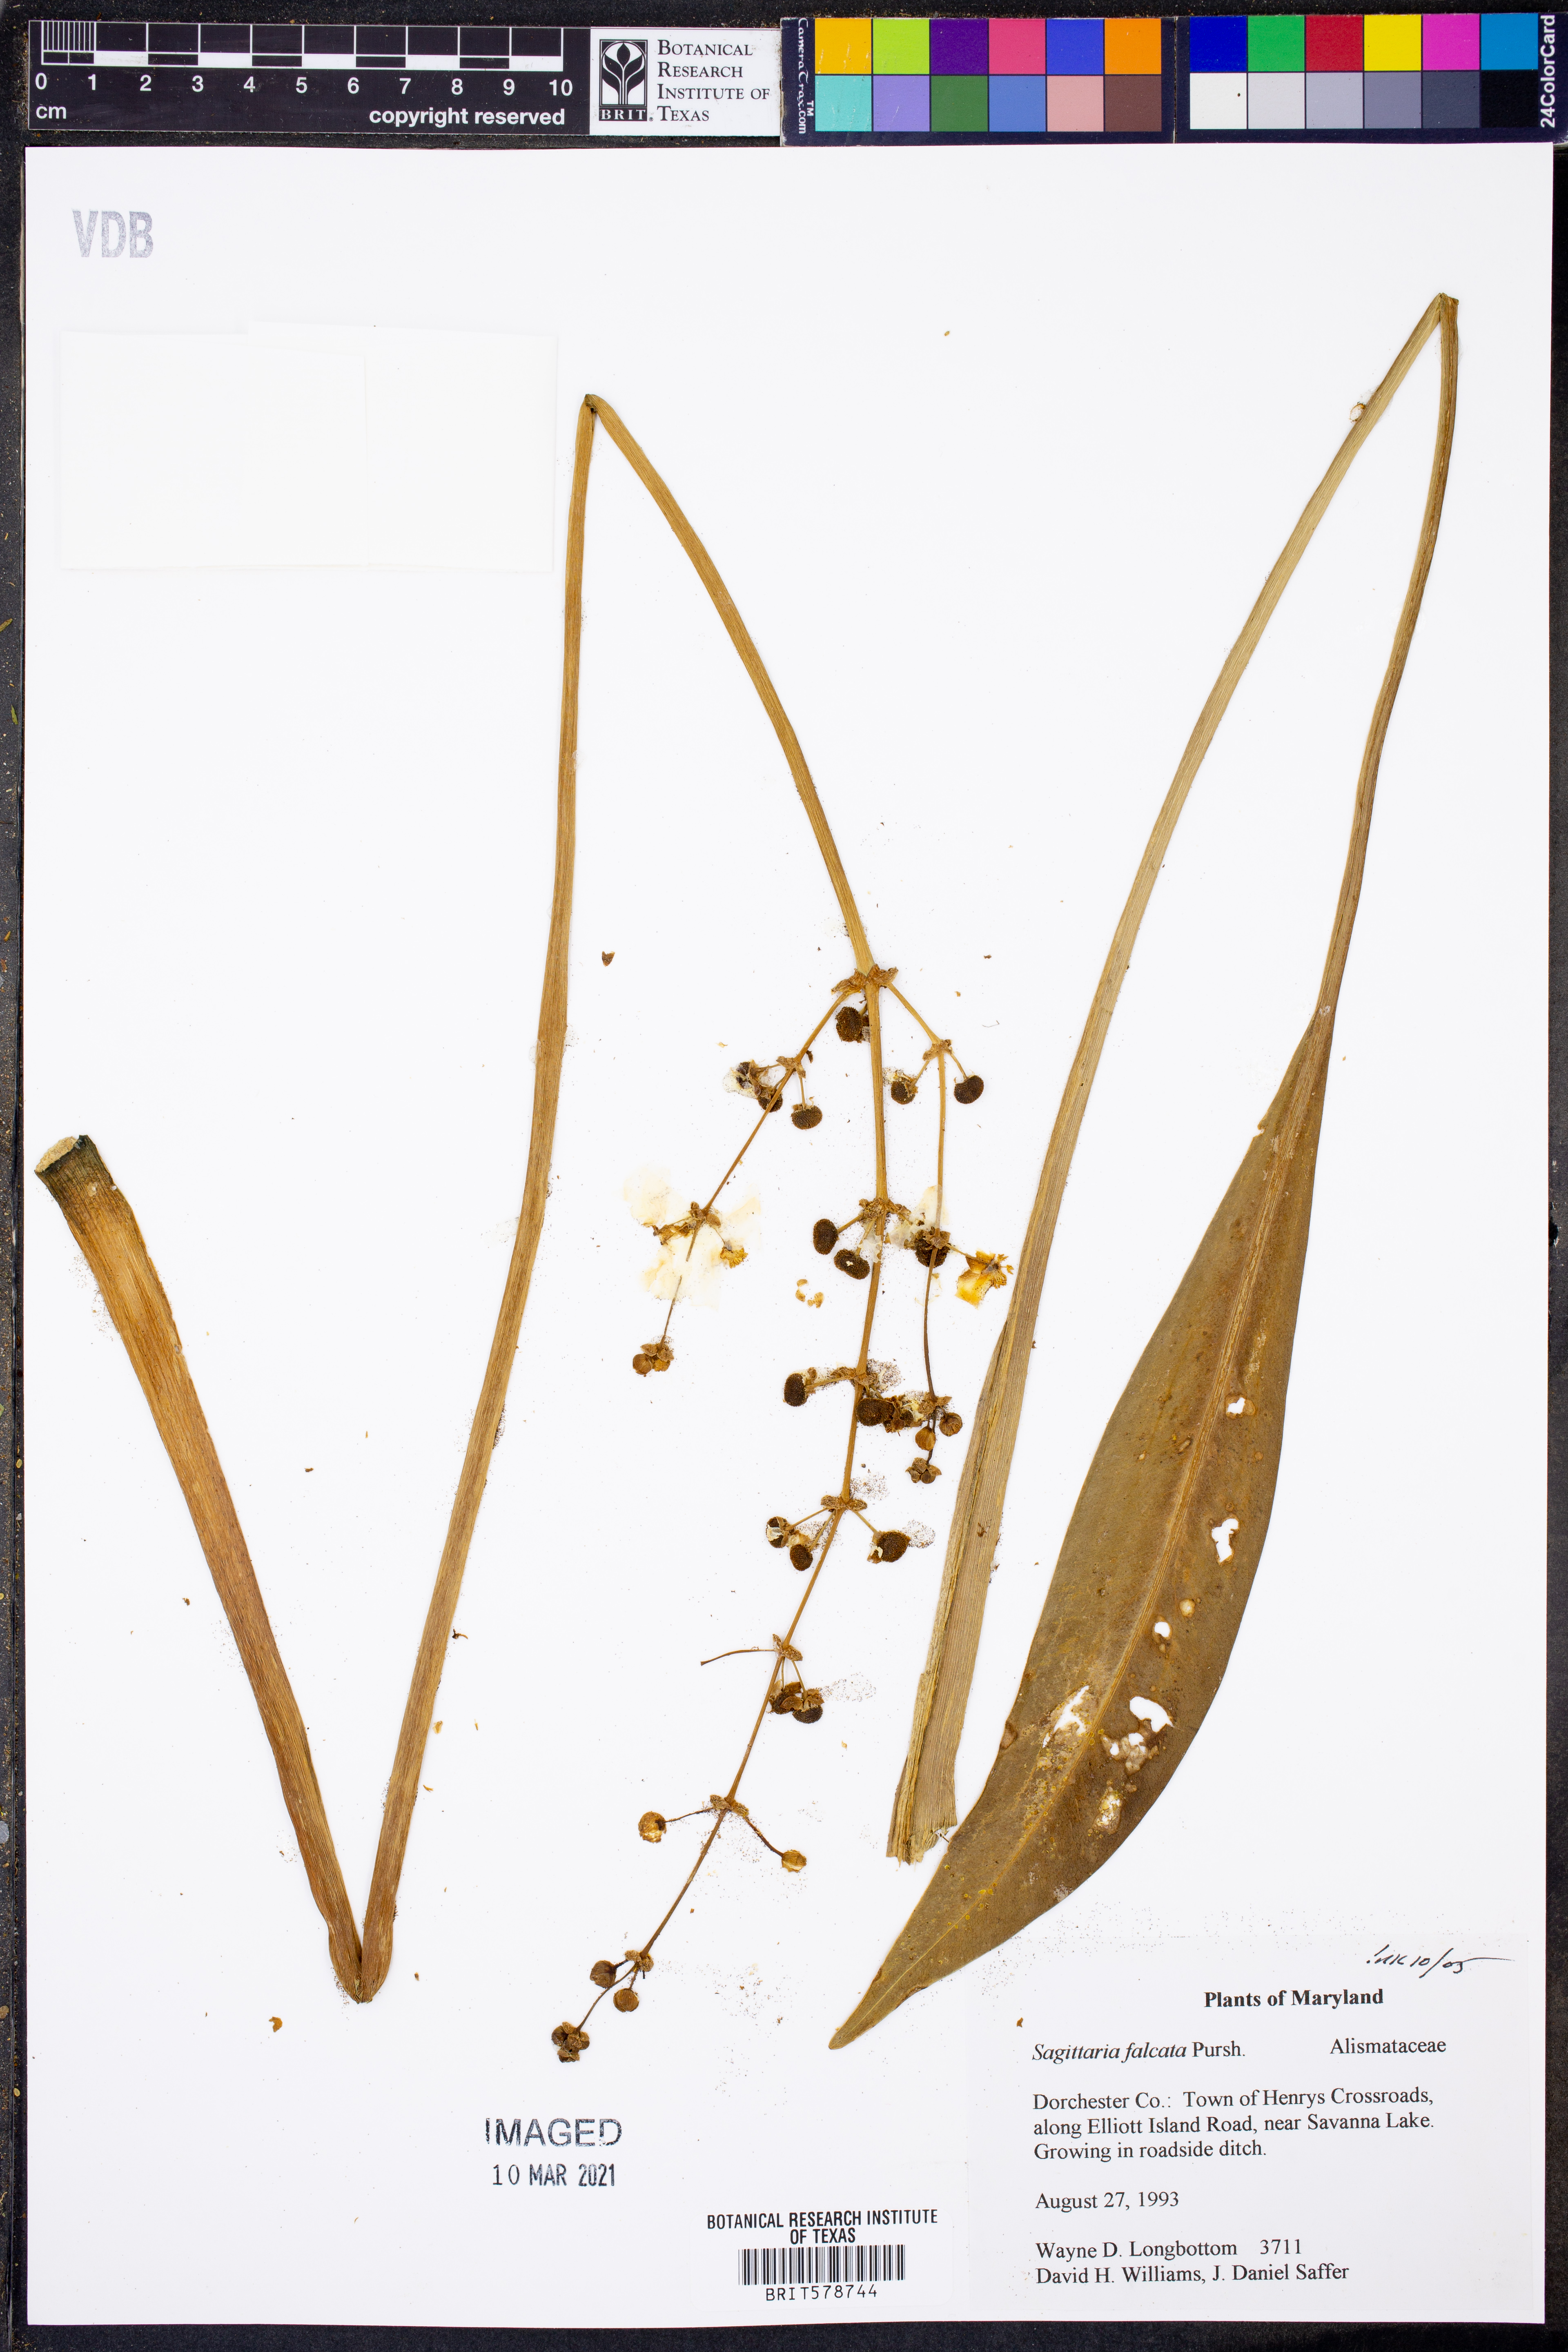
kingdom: Plantae
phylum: Tracheophyta
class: Liliopsida
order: Alismatales
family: Alismataceae
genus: Sagittaria
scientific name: Sagittaria lancifolia
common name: Lance-leaf arrowhead
